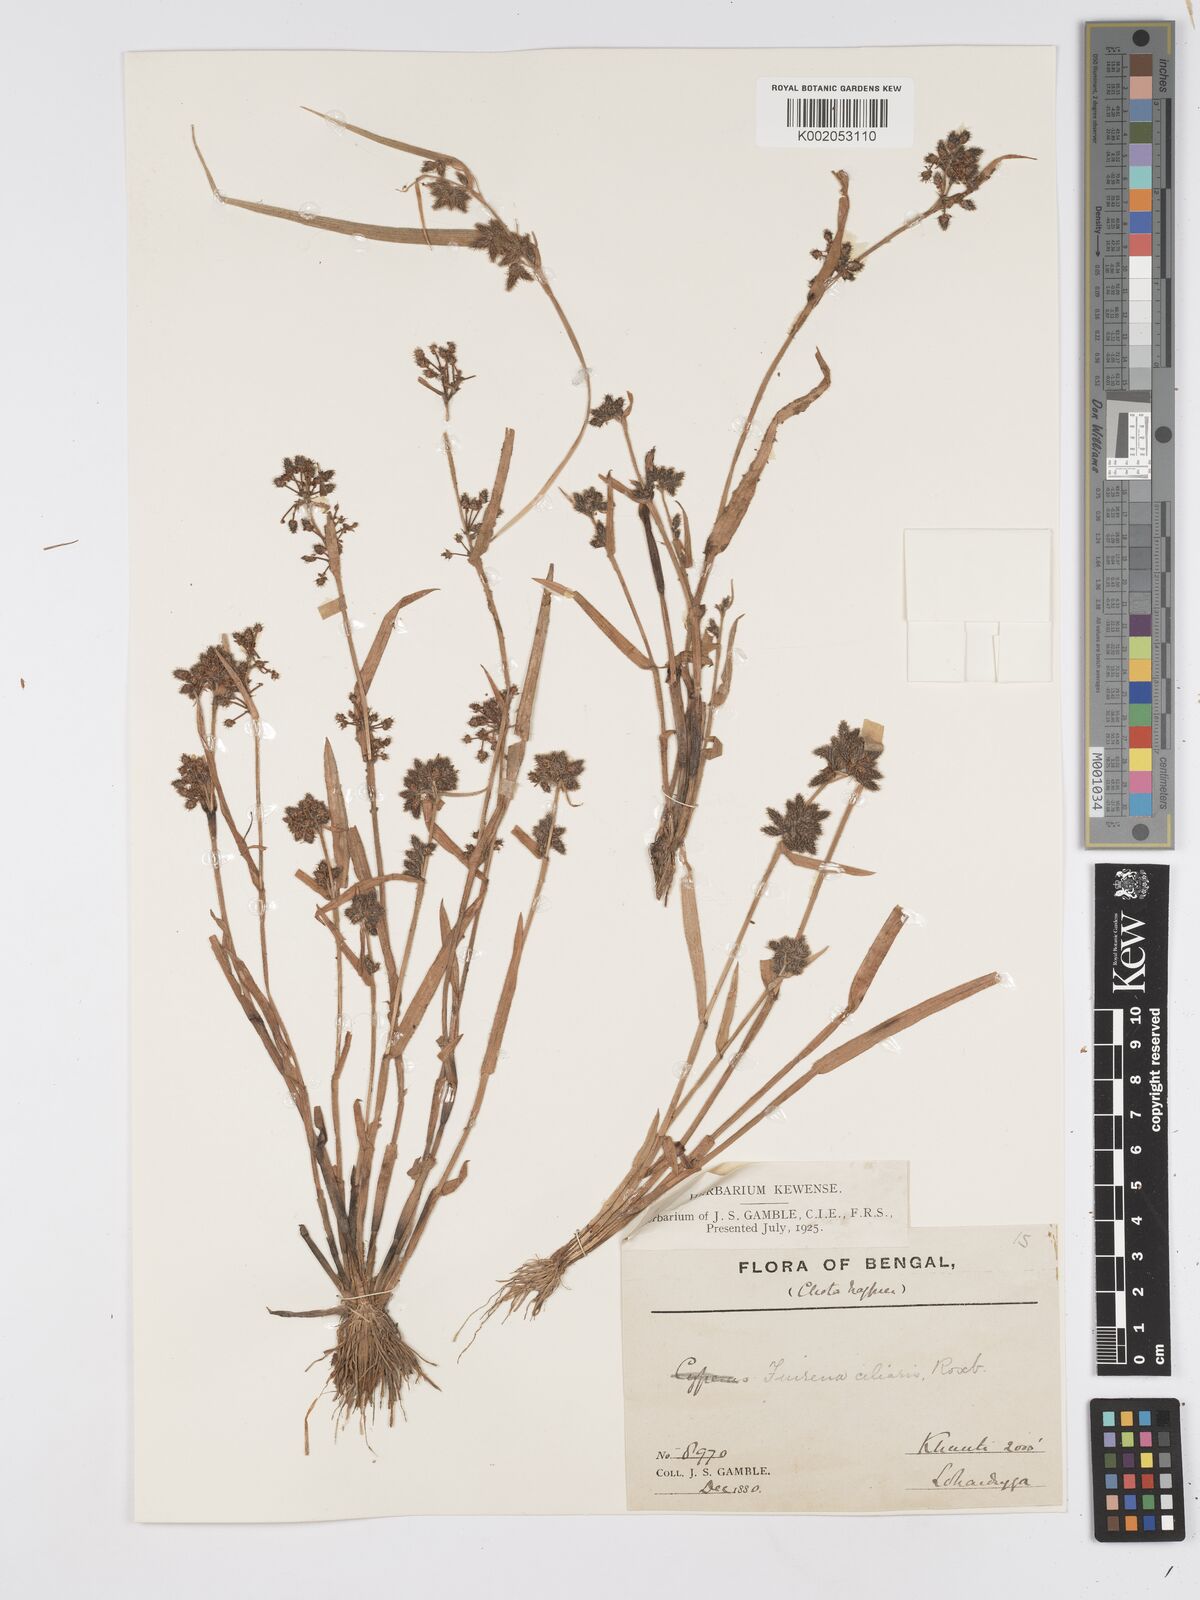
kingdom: Plantae
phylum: Tracheophyta
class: Liliopsida
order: Poales
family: Cyperaceae
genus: Fuirena
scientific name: Fuirena ciliaris
